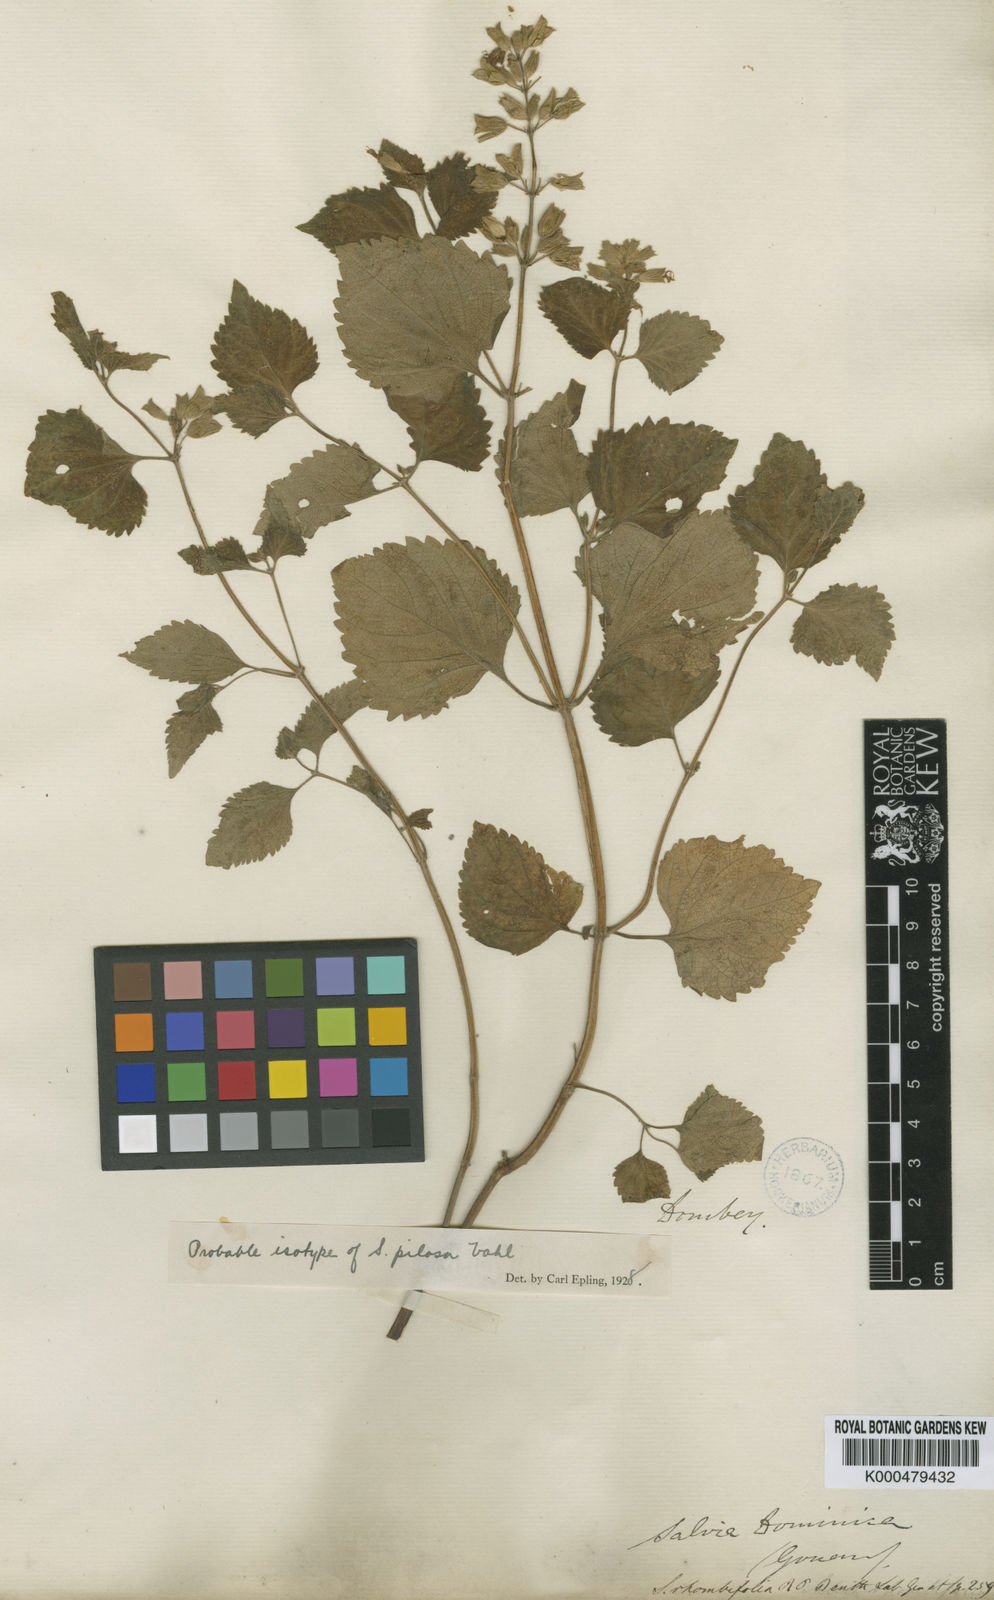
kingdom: Plantae
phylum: Tracheophyta
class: Magnoliopsida
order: Lamiales
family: Lamiaceae
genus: Salvia
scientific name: Salvia rhombifolia
